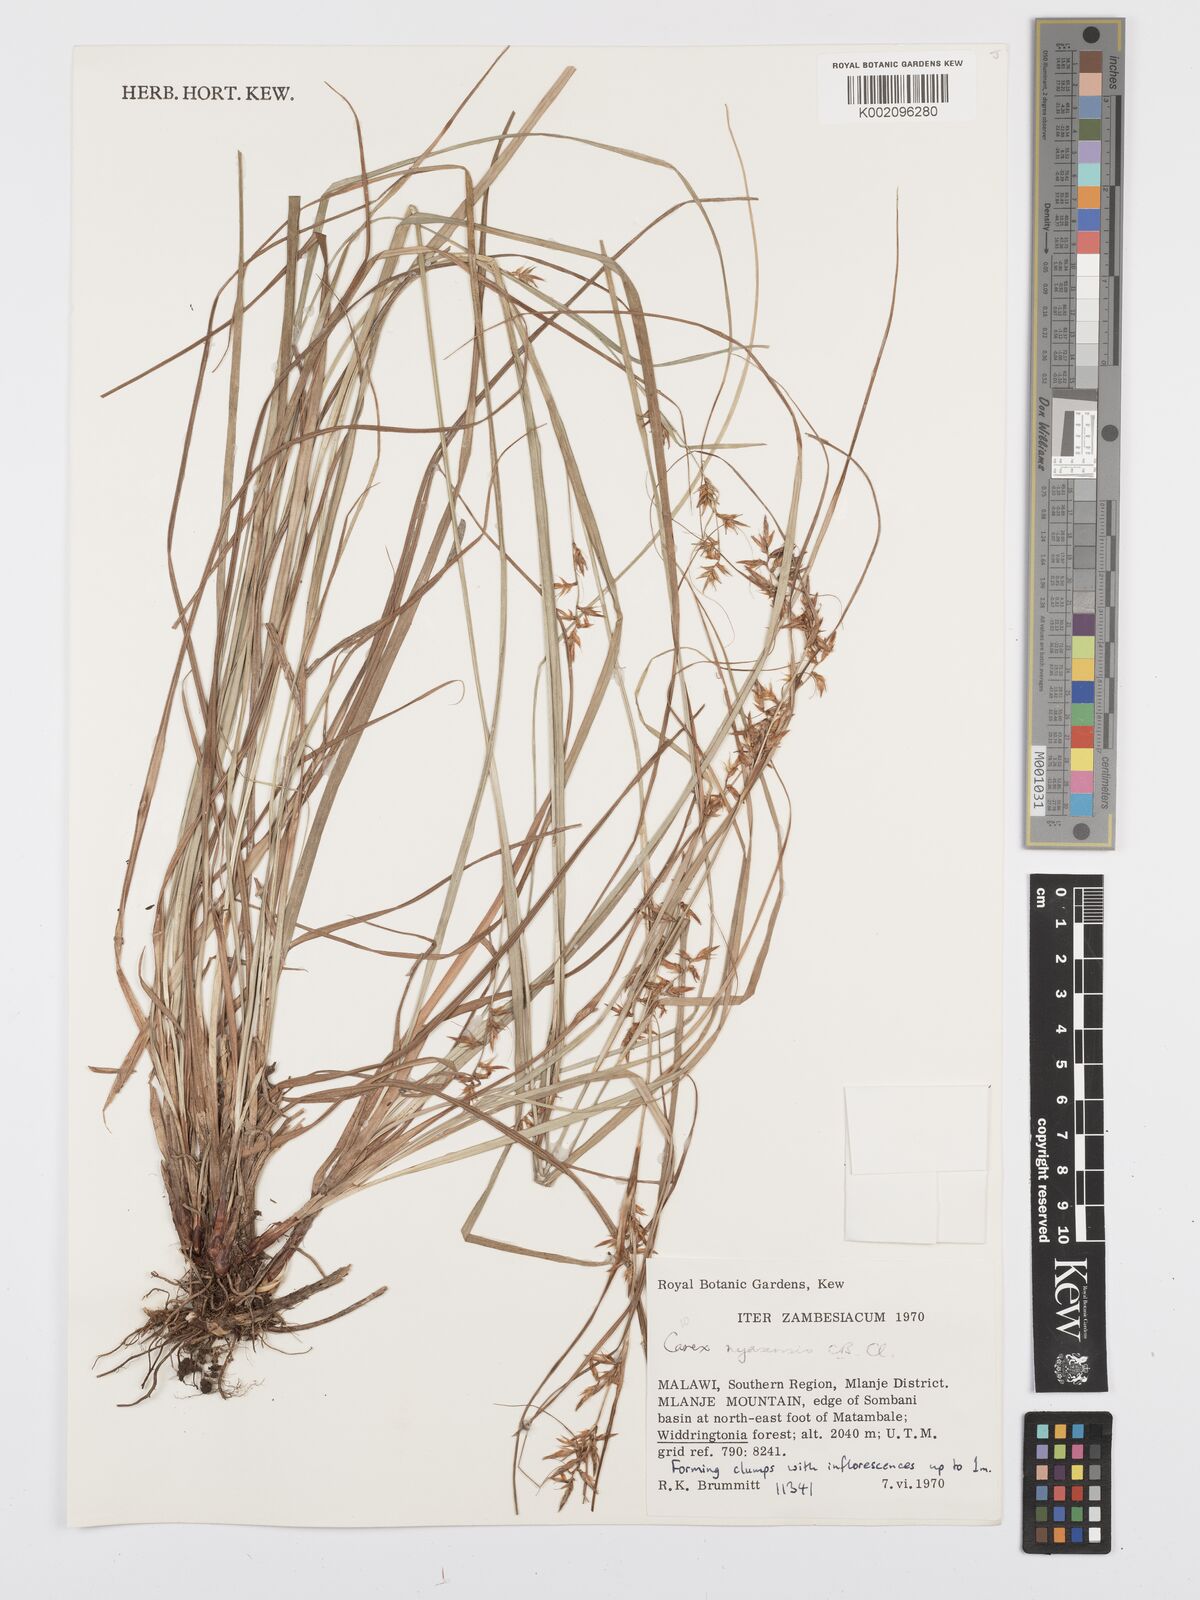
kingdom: Plantae
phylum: Tracheophyta
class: Liliopsida
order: Poales
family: Cyperaceae
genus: Carex
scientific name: Carex spicatopaniculata
